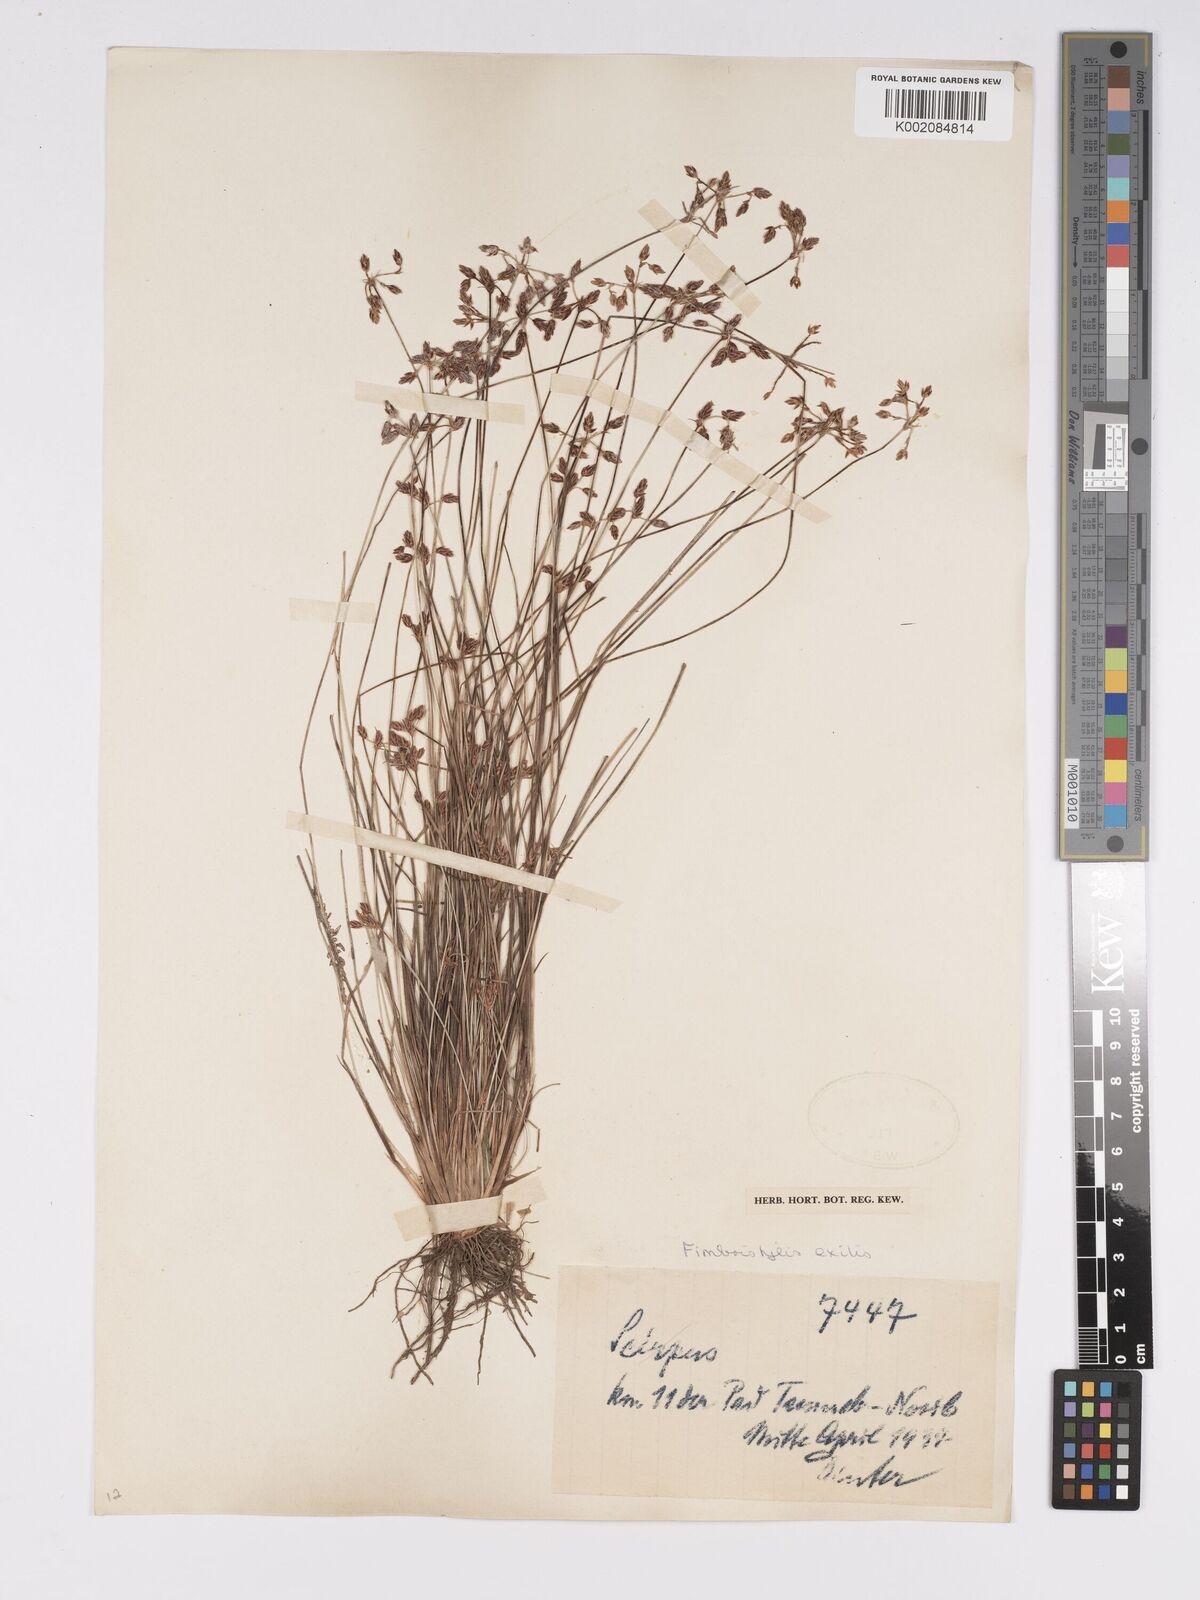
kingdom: Plantae
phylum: Tracheophyta
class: Liliopsida
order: Poales
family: Cyperaceae
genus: Bulbostylis
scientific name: Bulbostylis hispidula
